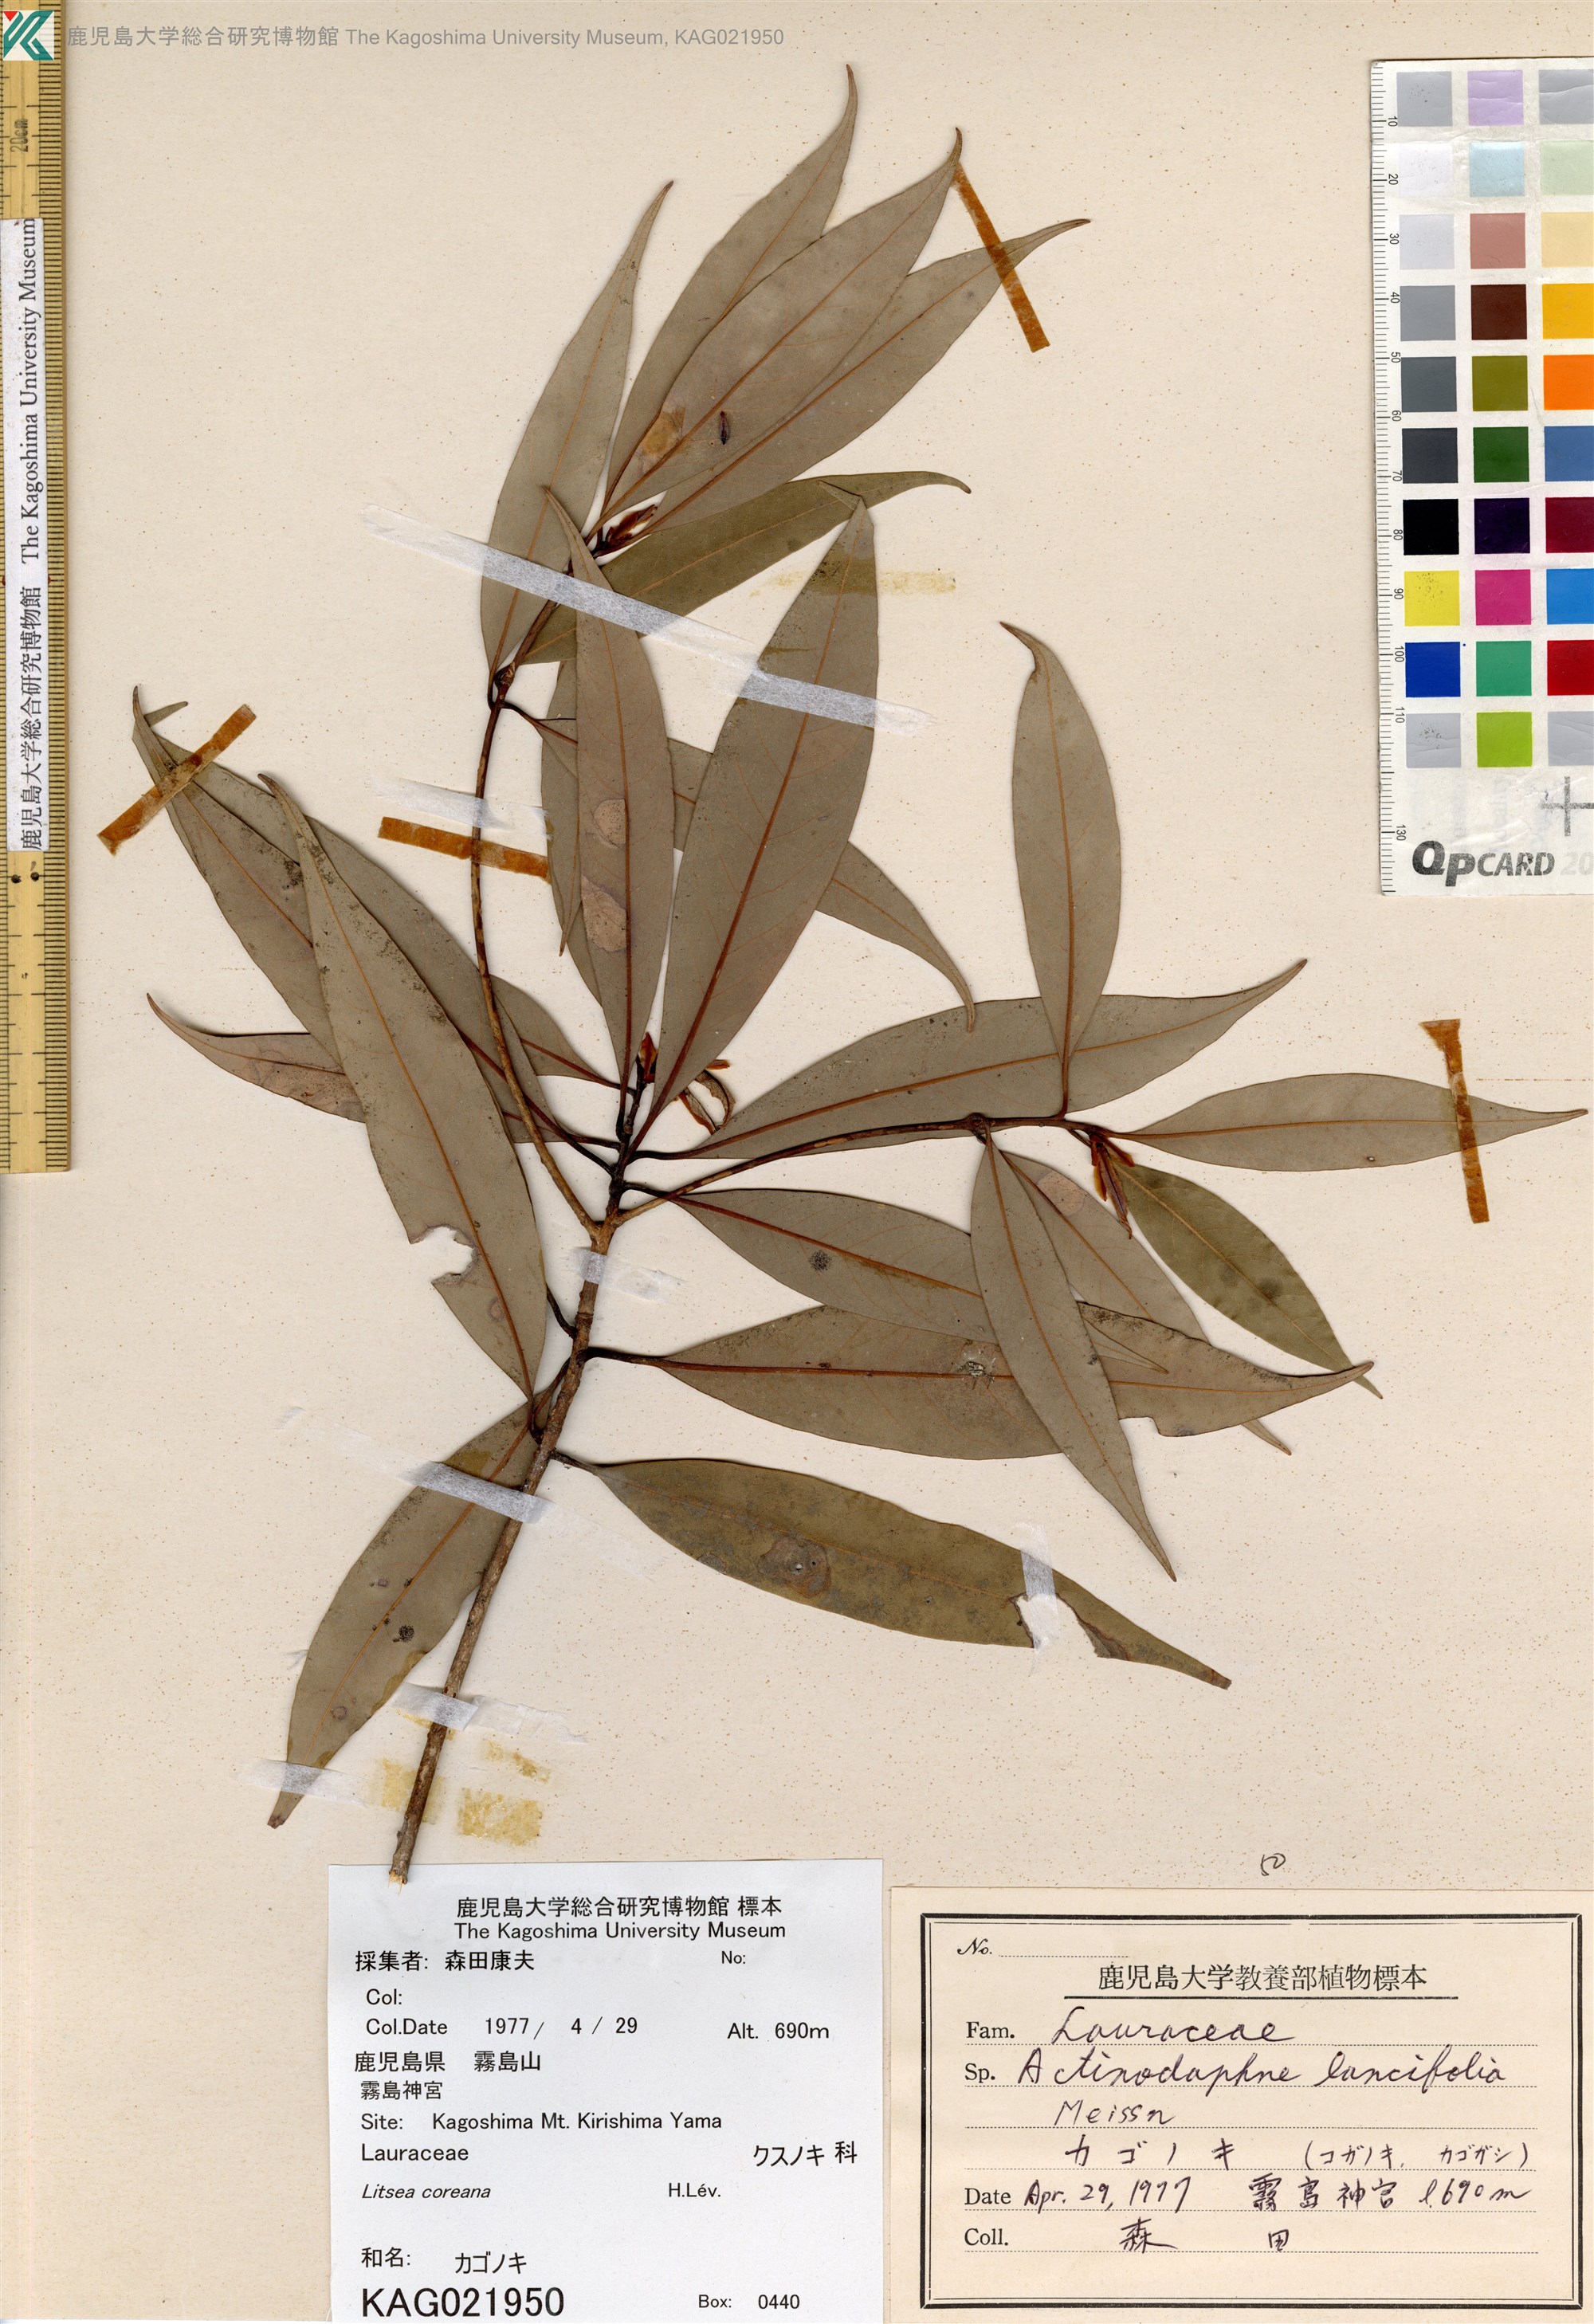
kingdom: Plantae
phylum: Tracheophyta
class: Magnoliopsida
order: Laurales
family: Lauraceae
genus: Litsea
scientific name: Litsea coreana
